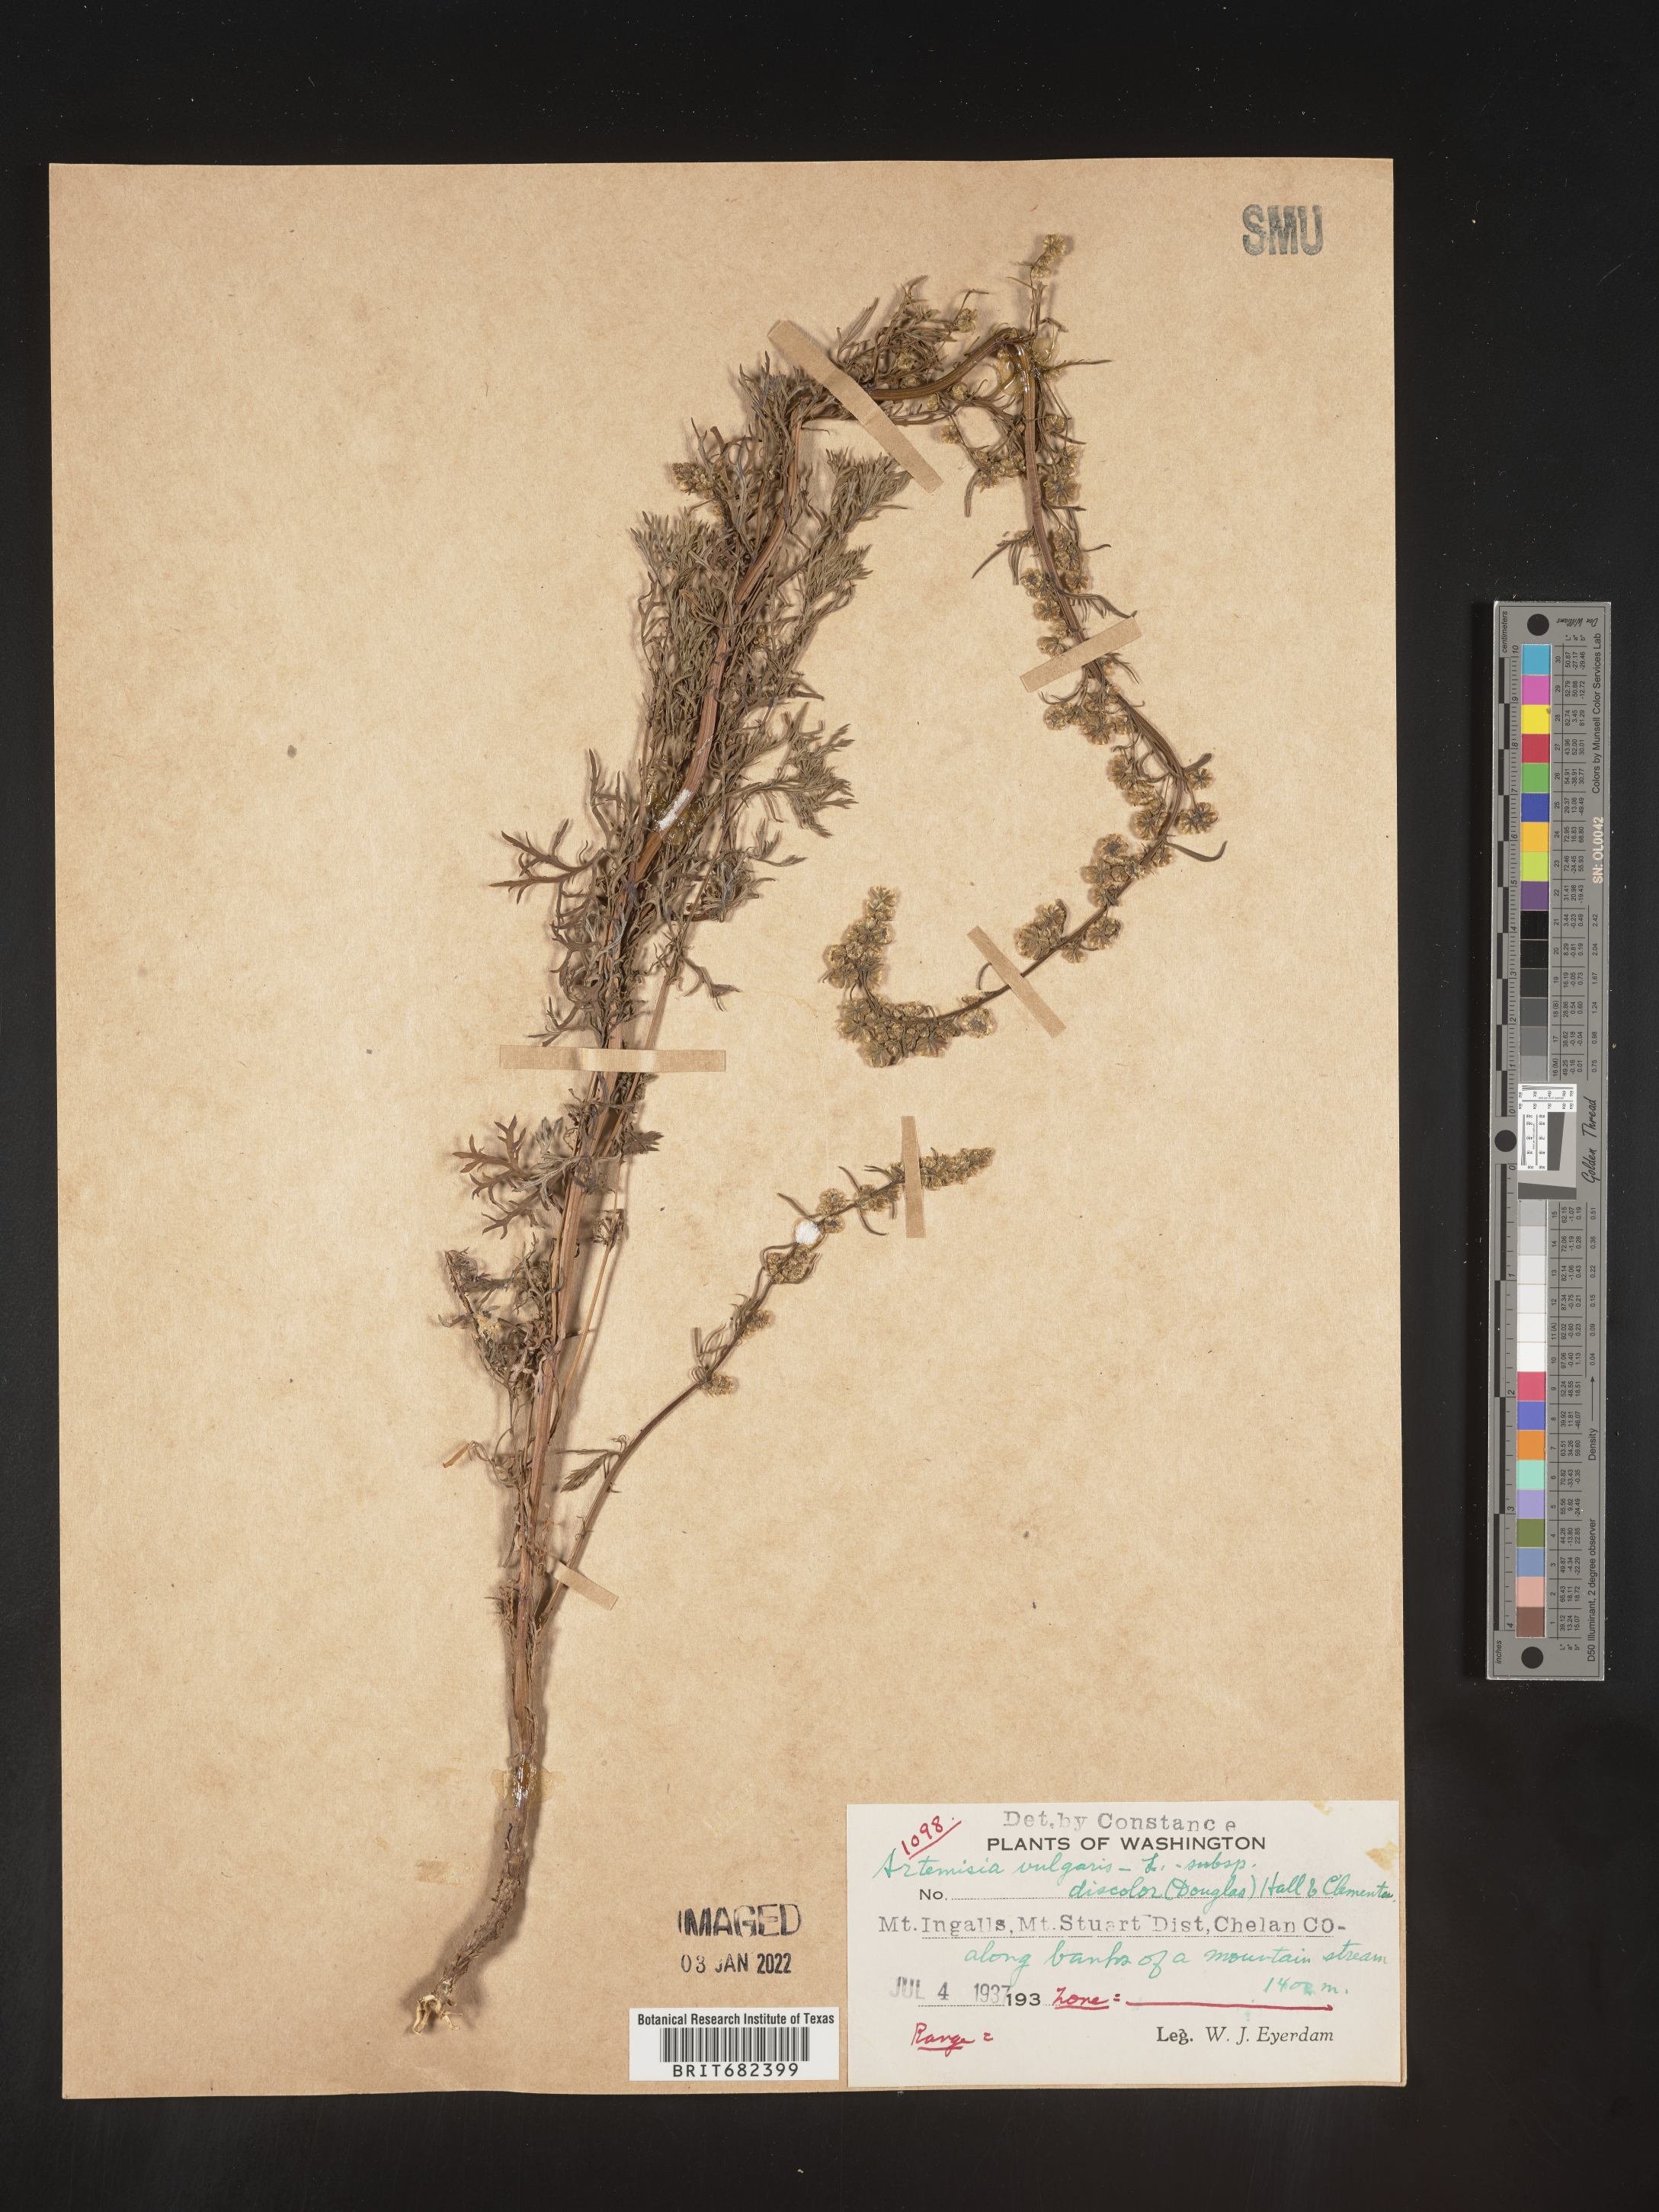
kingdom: Plantae
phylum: Tracheophyta
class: Magnoliopsida
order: Asterales
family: Asteraceae
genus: Artemisia
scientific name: Artemisia vulgaris
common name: Mugwort
